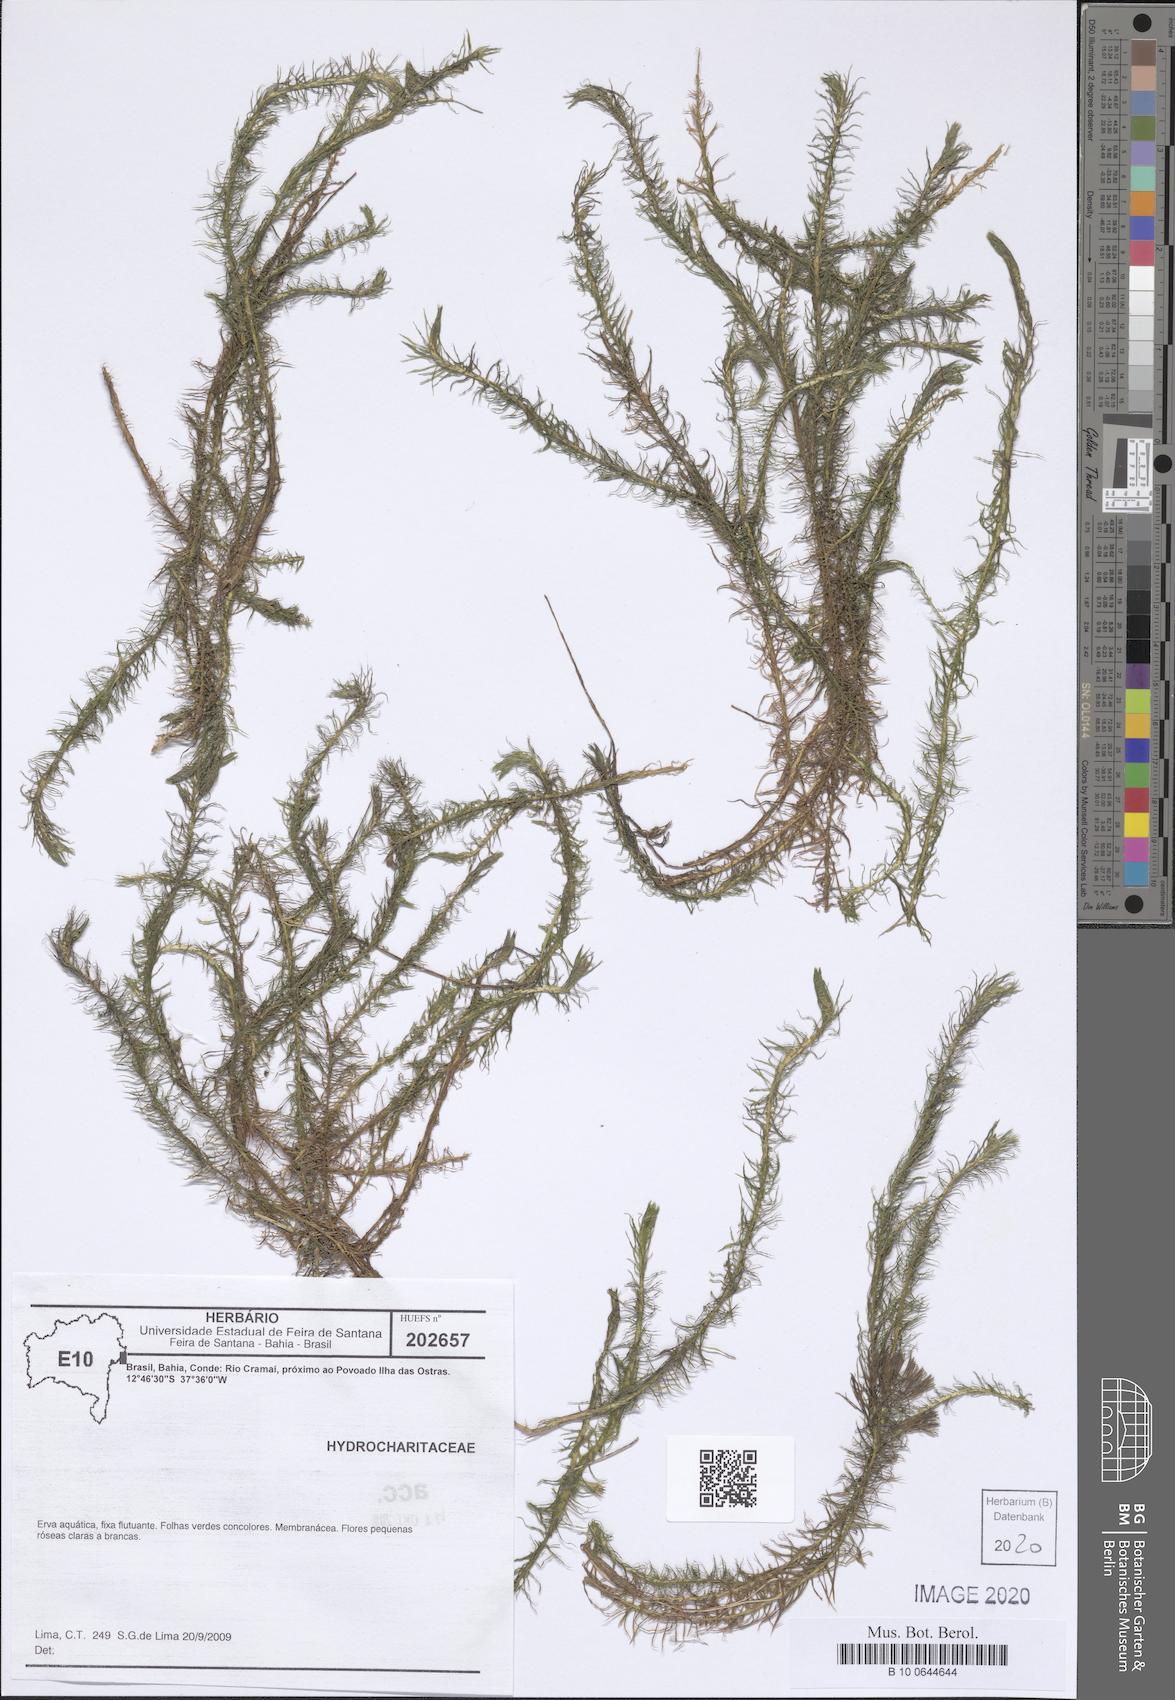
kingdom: Plantae
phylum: Tracheophyta
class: Liliopsida
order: Alismatales
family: Hydrocharitaceae
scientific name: Hydrocharitaceae
